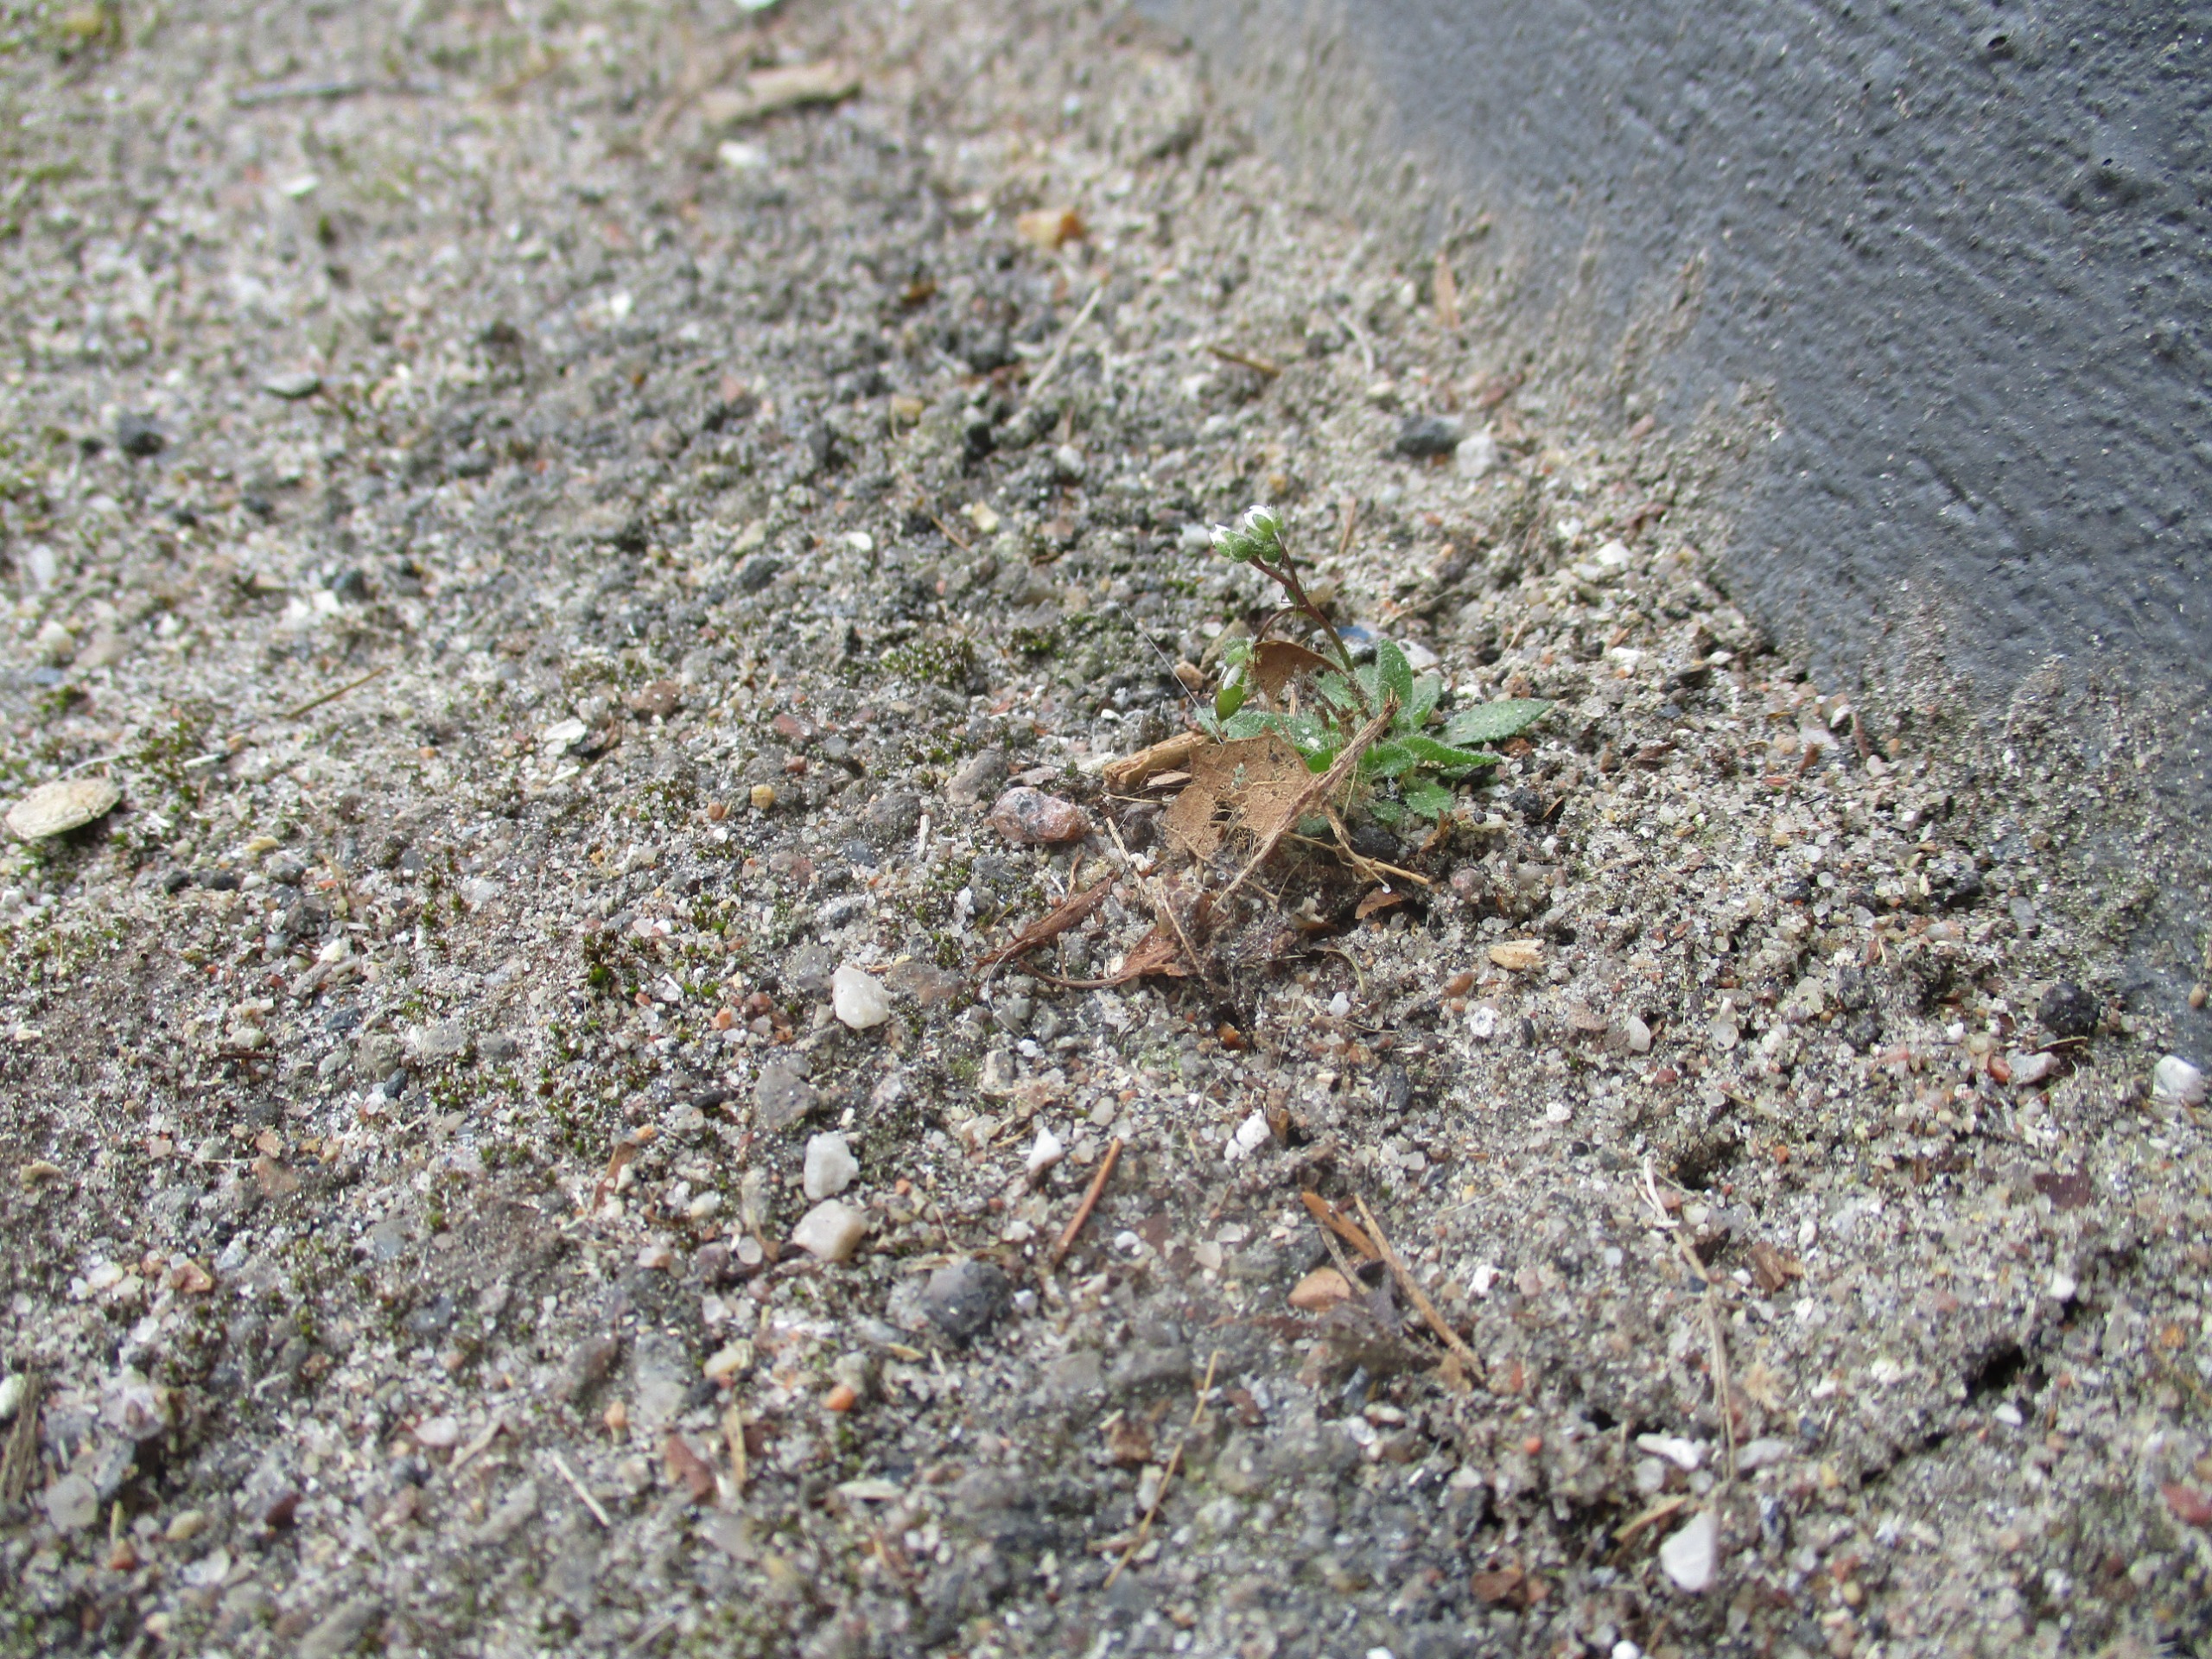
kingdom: Plantae
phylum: Tracheophyta
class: Magnoliopsida
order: Brassicales
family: Brassicaceae
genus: Draba
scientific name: Draba verna
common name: Vår-gæslingeblomst
